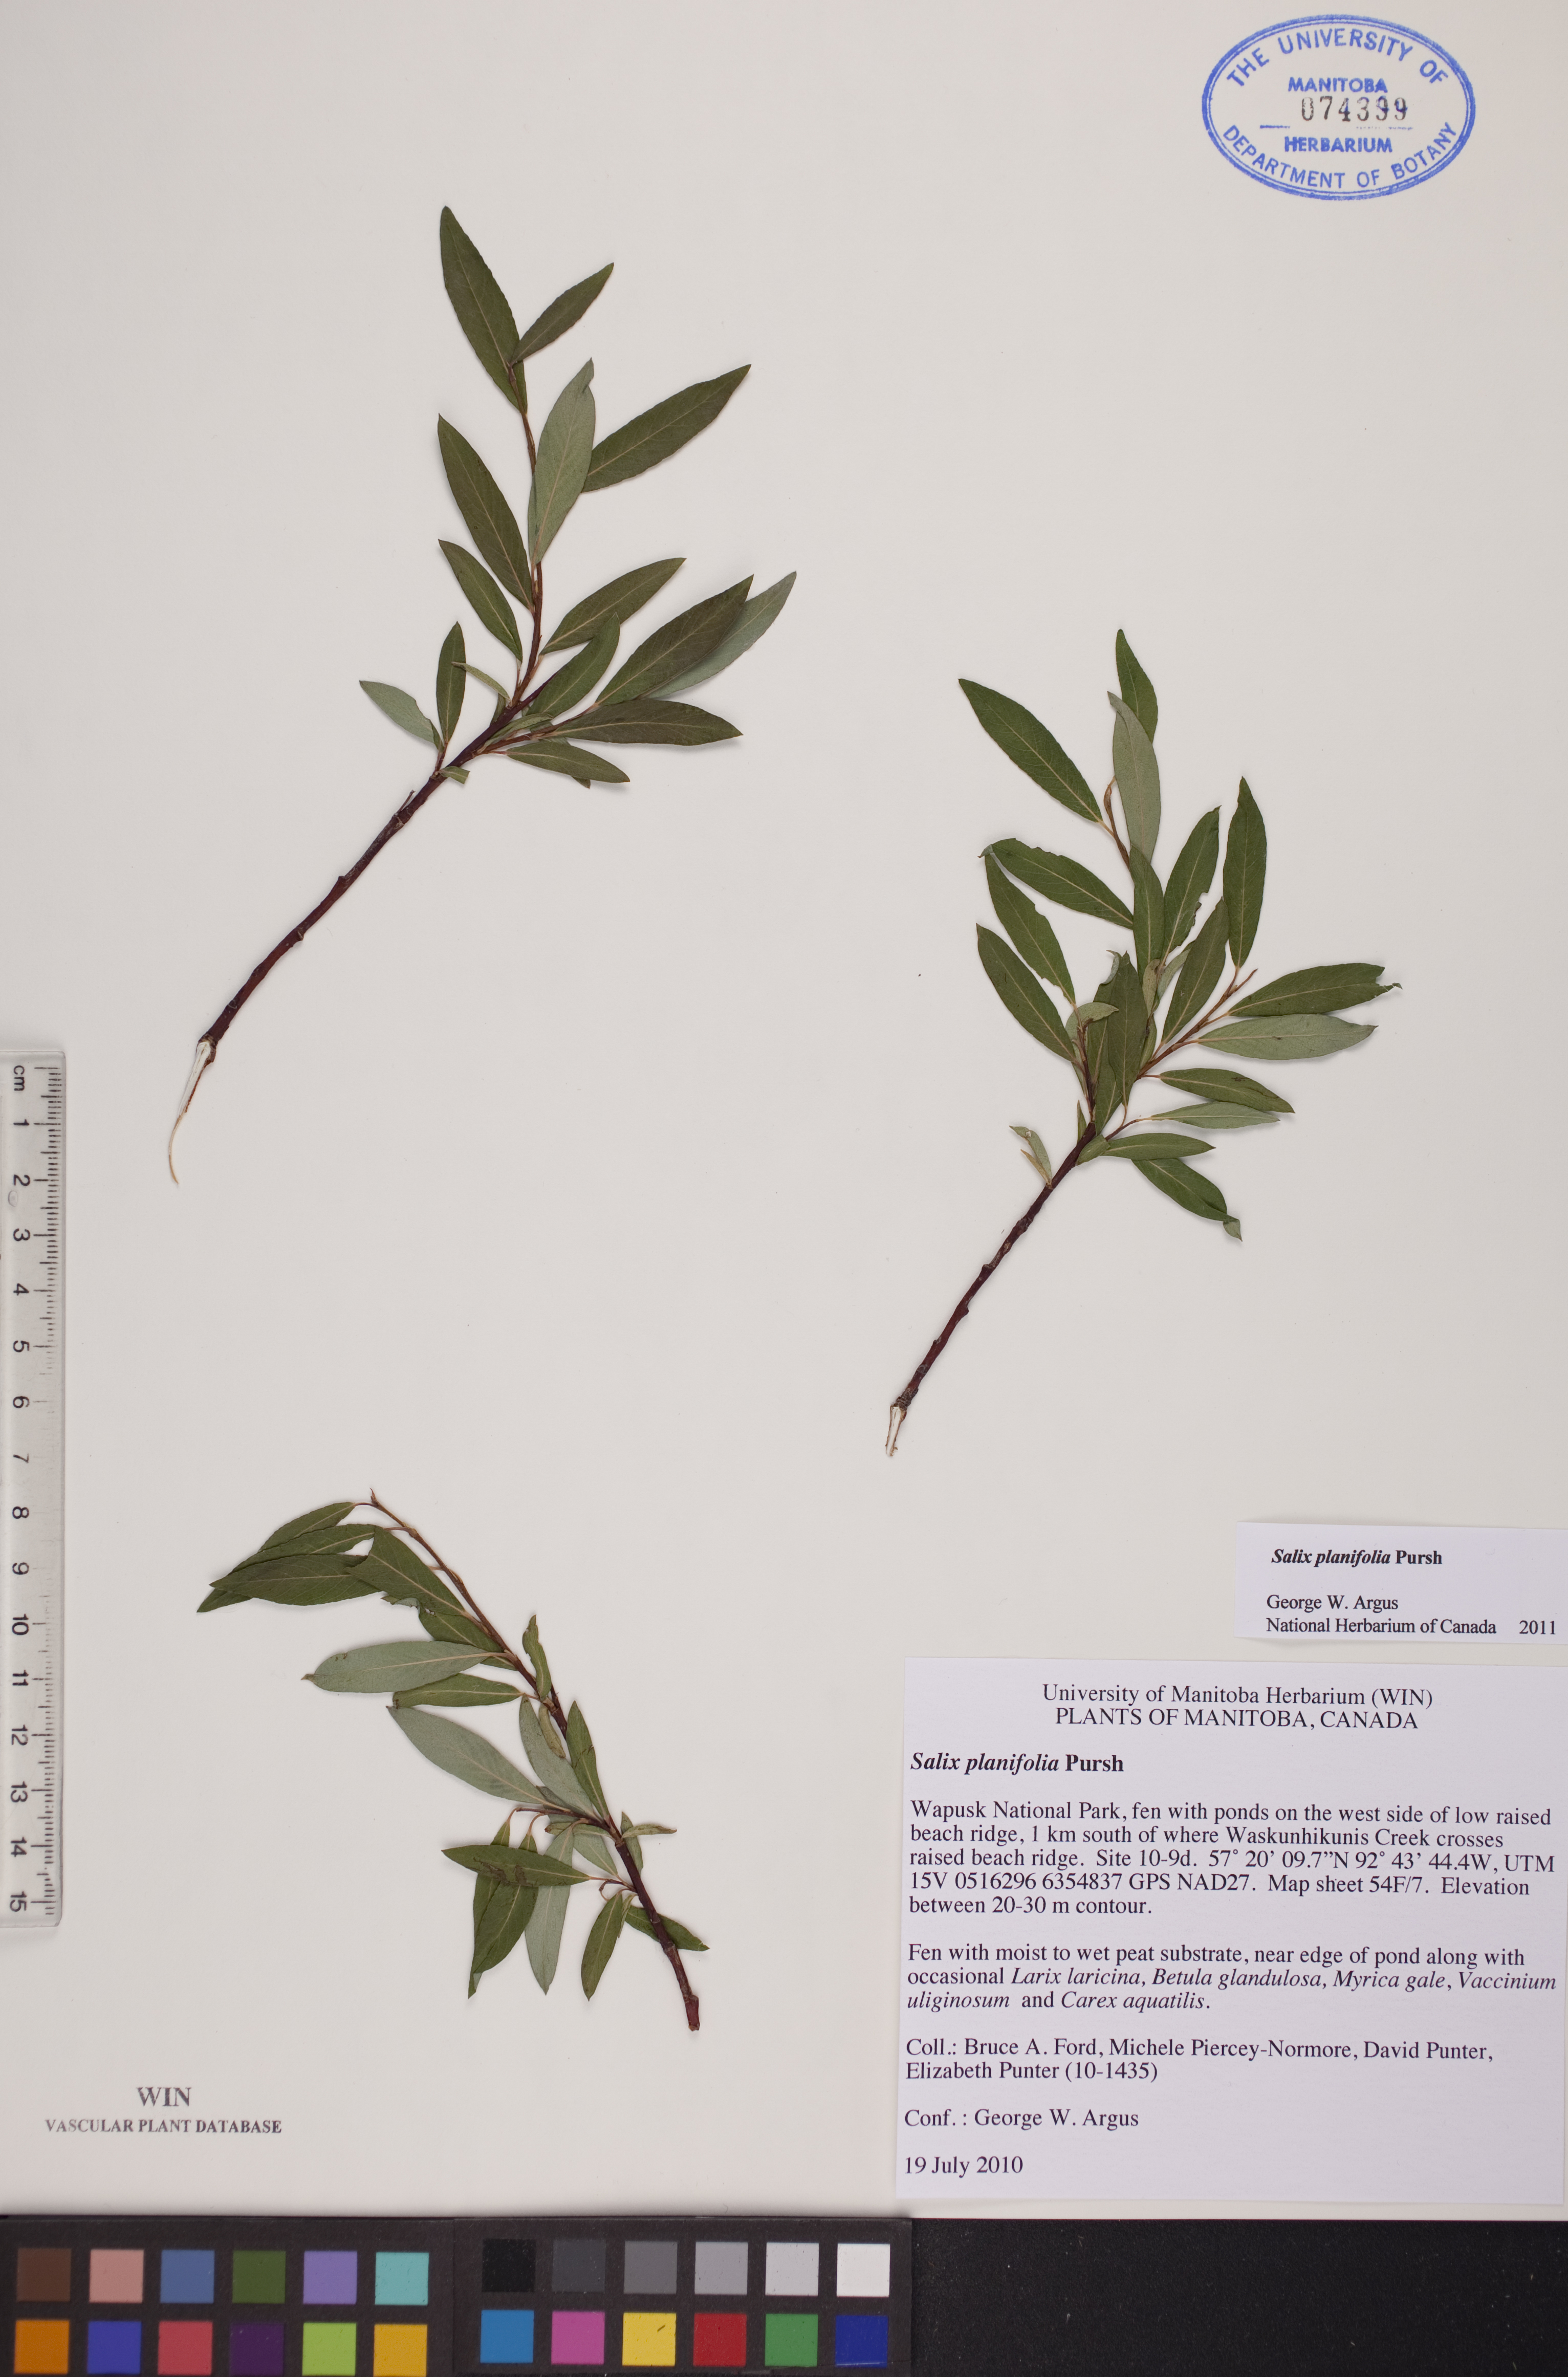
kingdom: Plantae
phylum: Tracheophyta
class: Magnoliopsida
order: Malpighiales
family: Salicaceae
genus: Salix
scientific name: Salix planifolia
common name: Mountain willow
